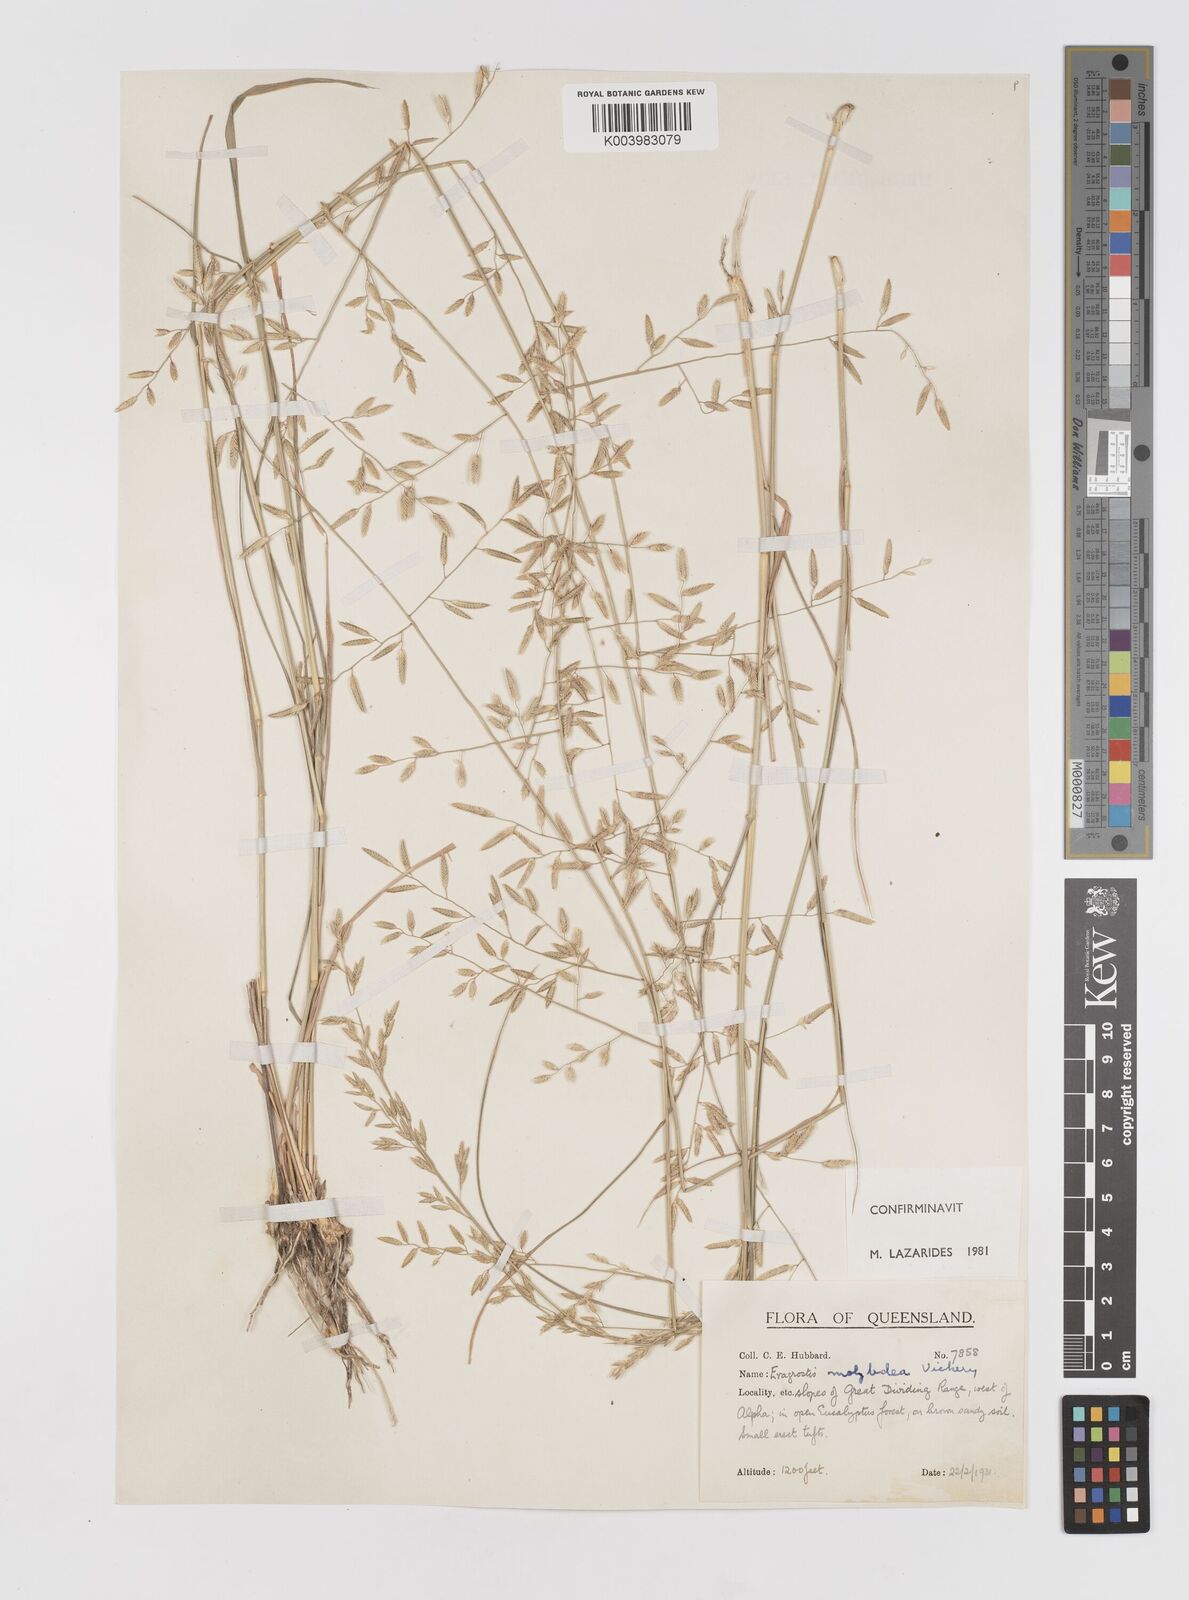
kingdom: Plantae
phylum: Tracheophyta
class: Liliopsida
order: Poales
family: Poaceae
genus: Eragrostis
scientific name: Eragrostis leptostachya
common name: Australian lovegrass
